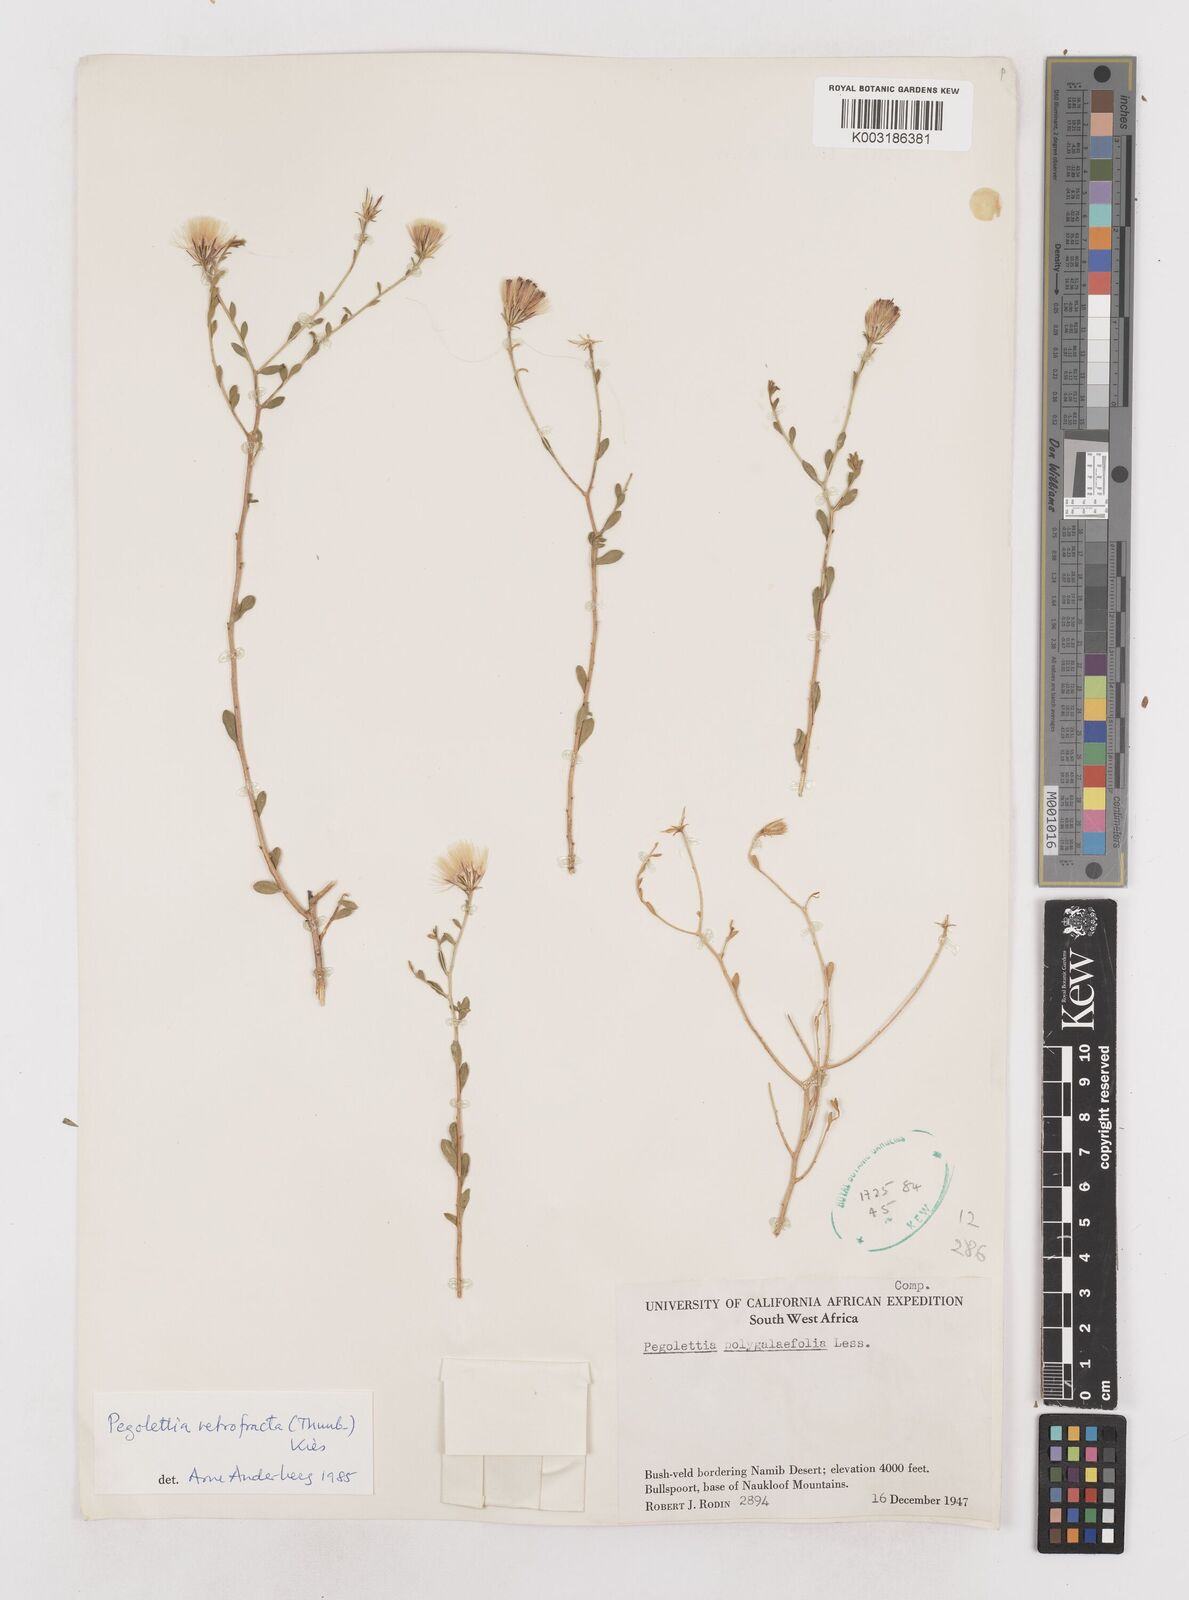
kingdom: Plantae
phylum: Tracheophyta
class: Magnoliopsida
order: Asterales
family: Asteraceae
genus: Pegolettia
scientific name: Pegolettia retrofracta
